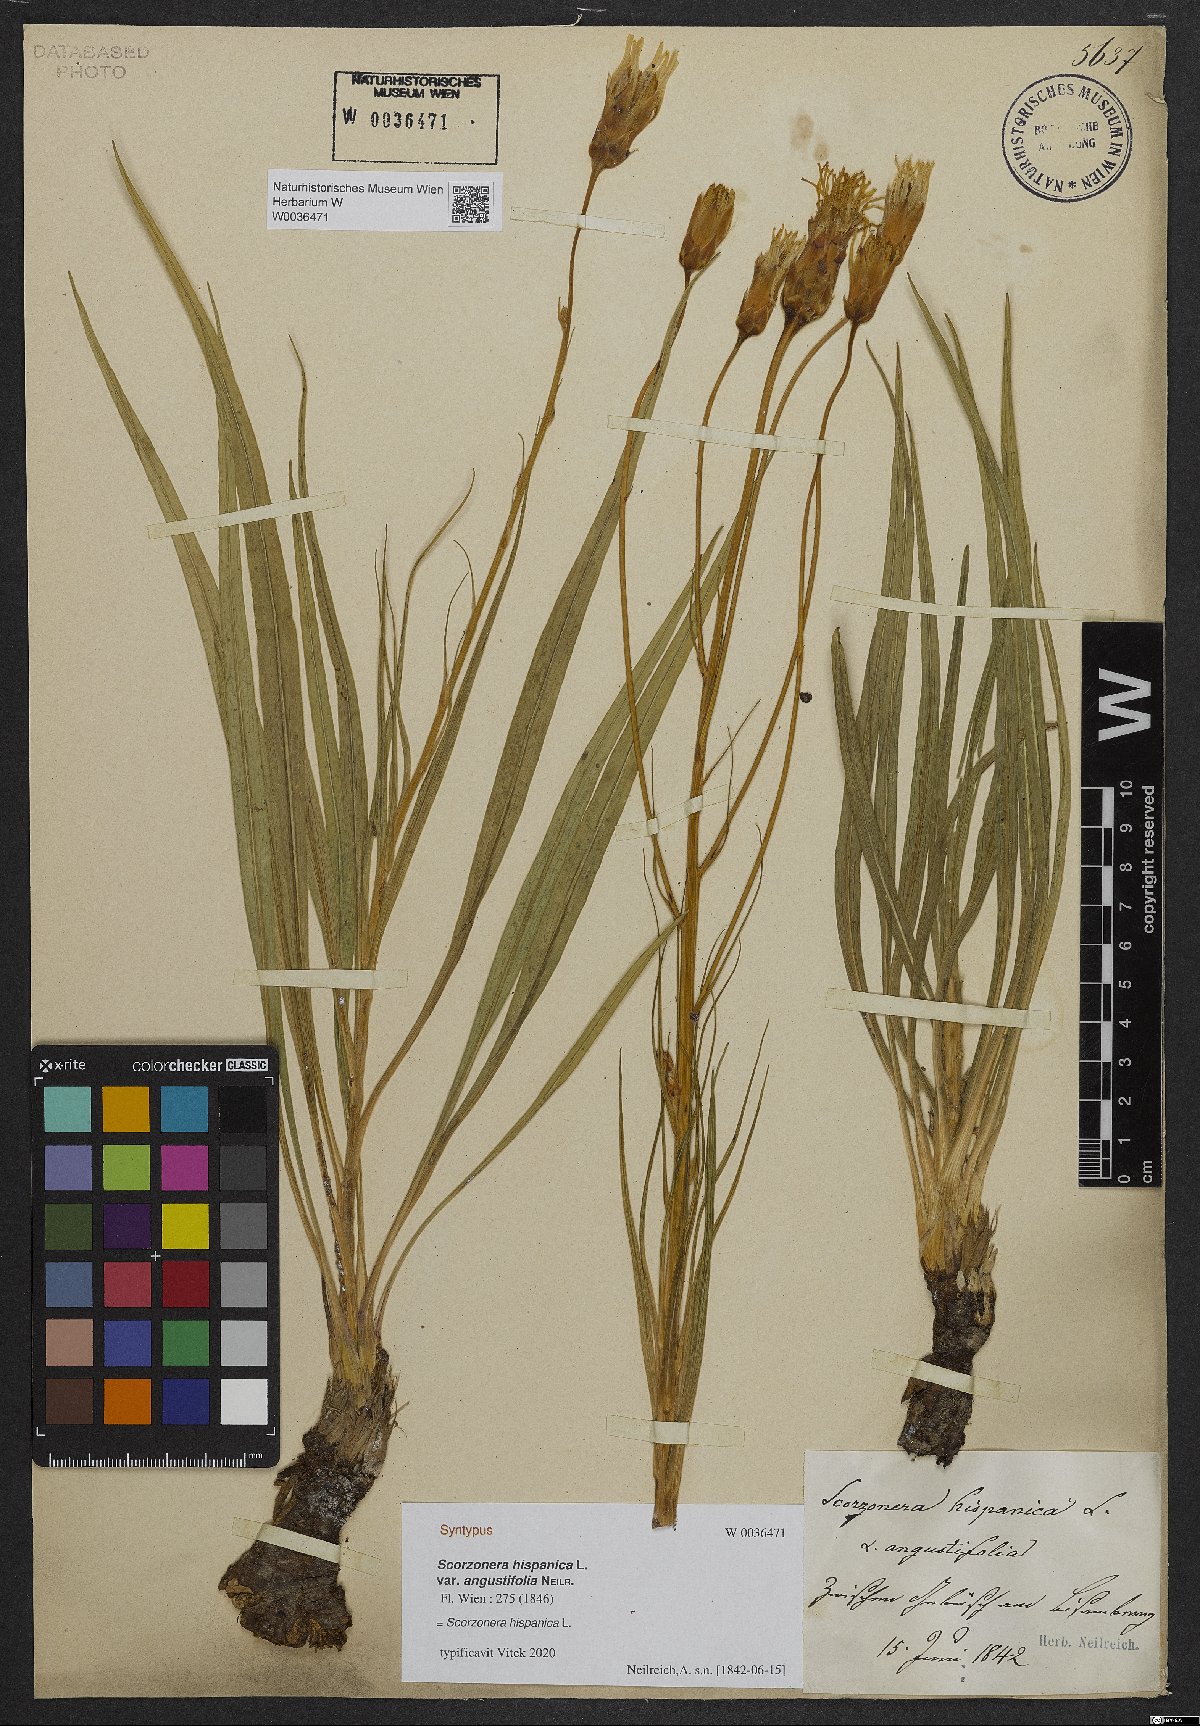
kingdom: Plantae
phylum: Tracheophyta
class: Magnoliopsida
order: Asterales
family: Asteraceae
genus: Pseudopodospermum
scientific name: Pseudopodospermum
